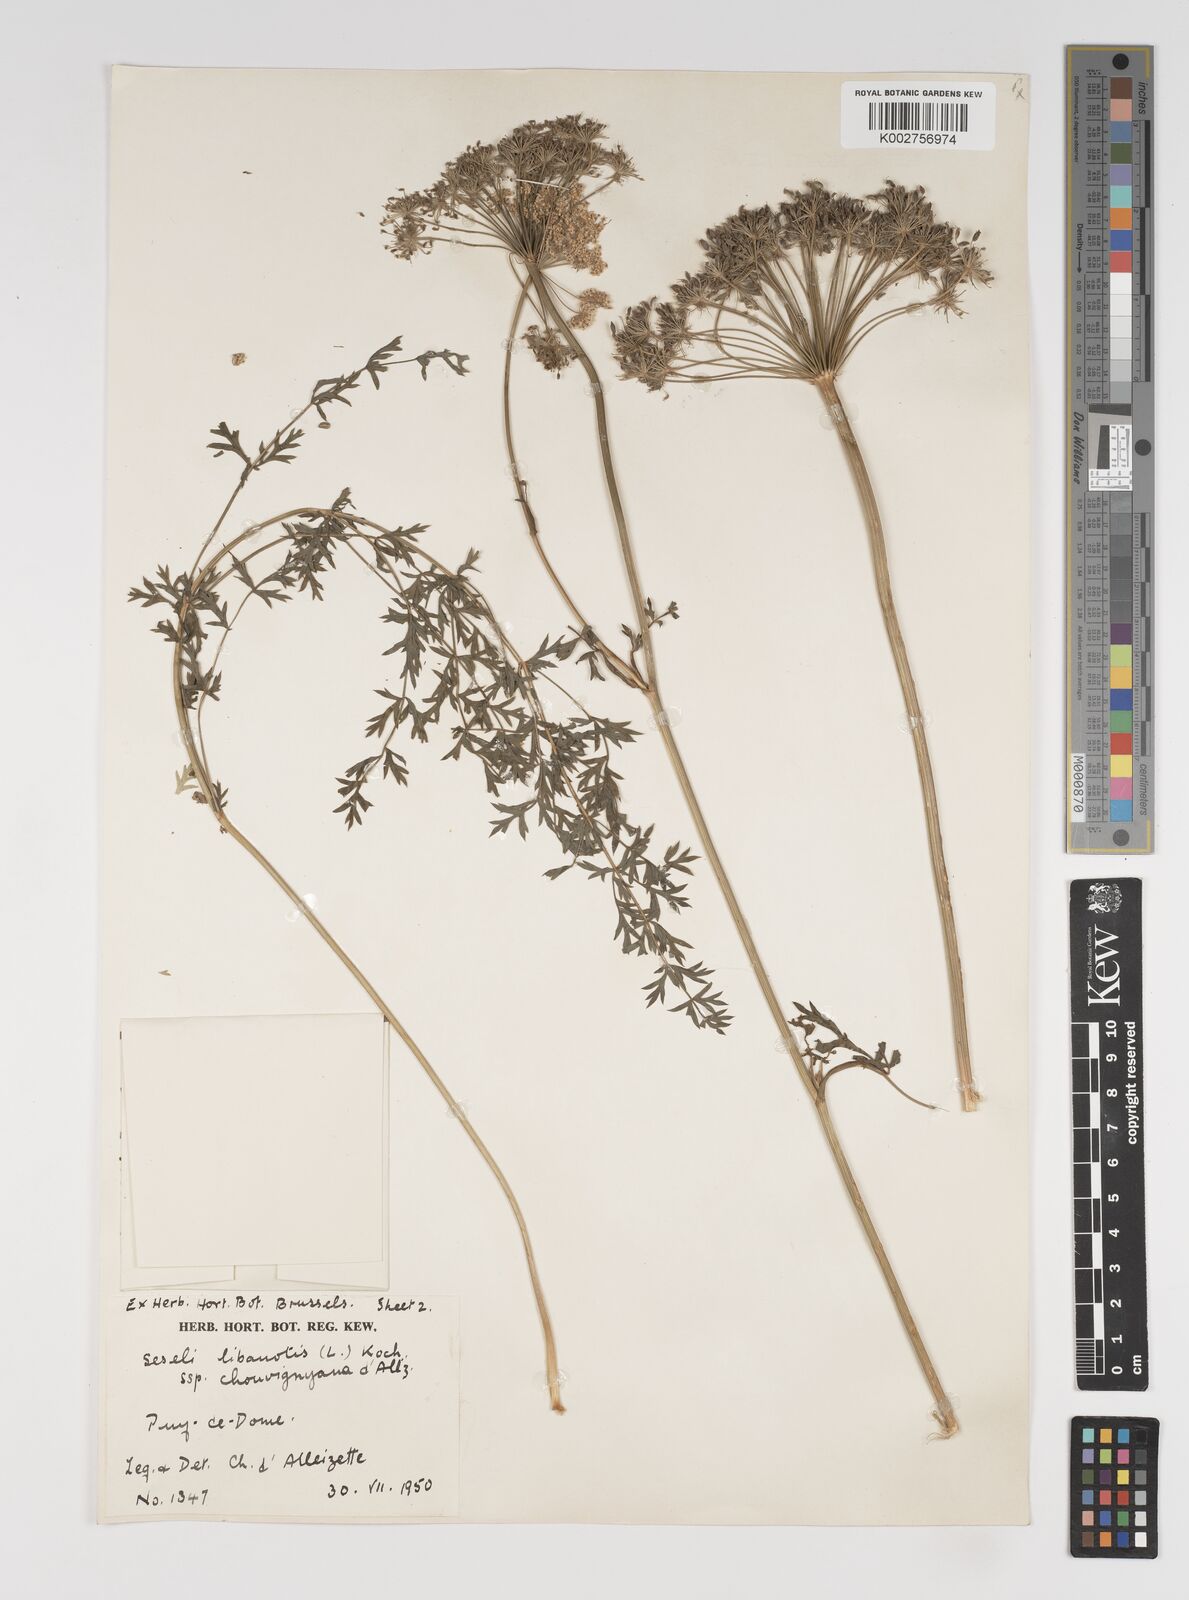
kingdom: Plantae
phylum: Tracheophyta
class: Magnoliopsida
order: Apiales
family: Apiaceae
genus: Seseli
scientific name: Seseli libanotis
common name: Mooncarrot
